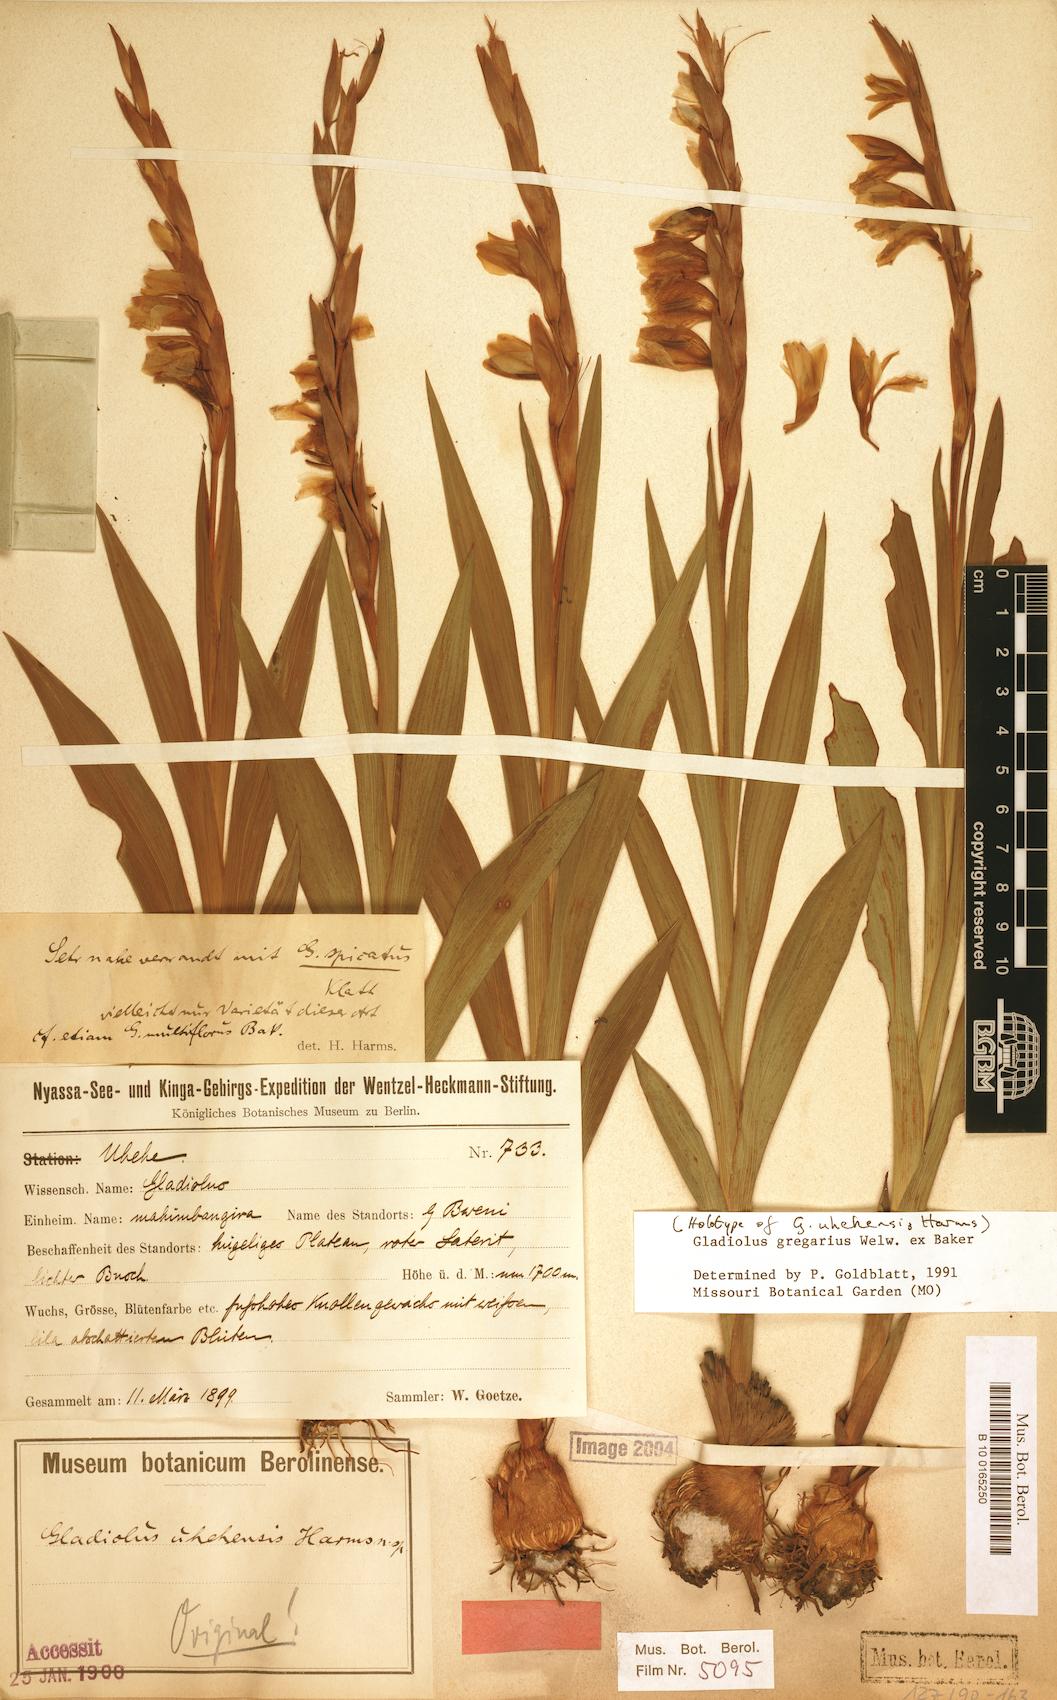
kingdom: Plantae
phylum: Tracheophyta
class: Liliopsida
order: Asparagales
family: Iridaceae
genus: Gladiolus
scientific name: Gladiolus gregarius
